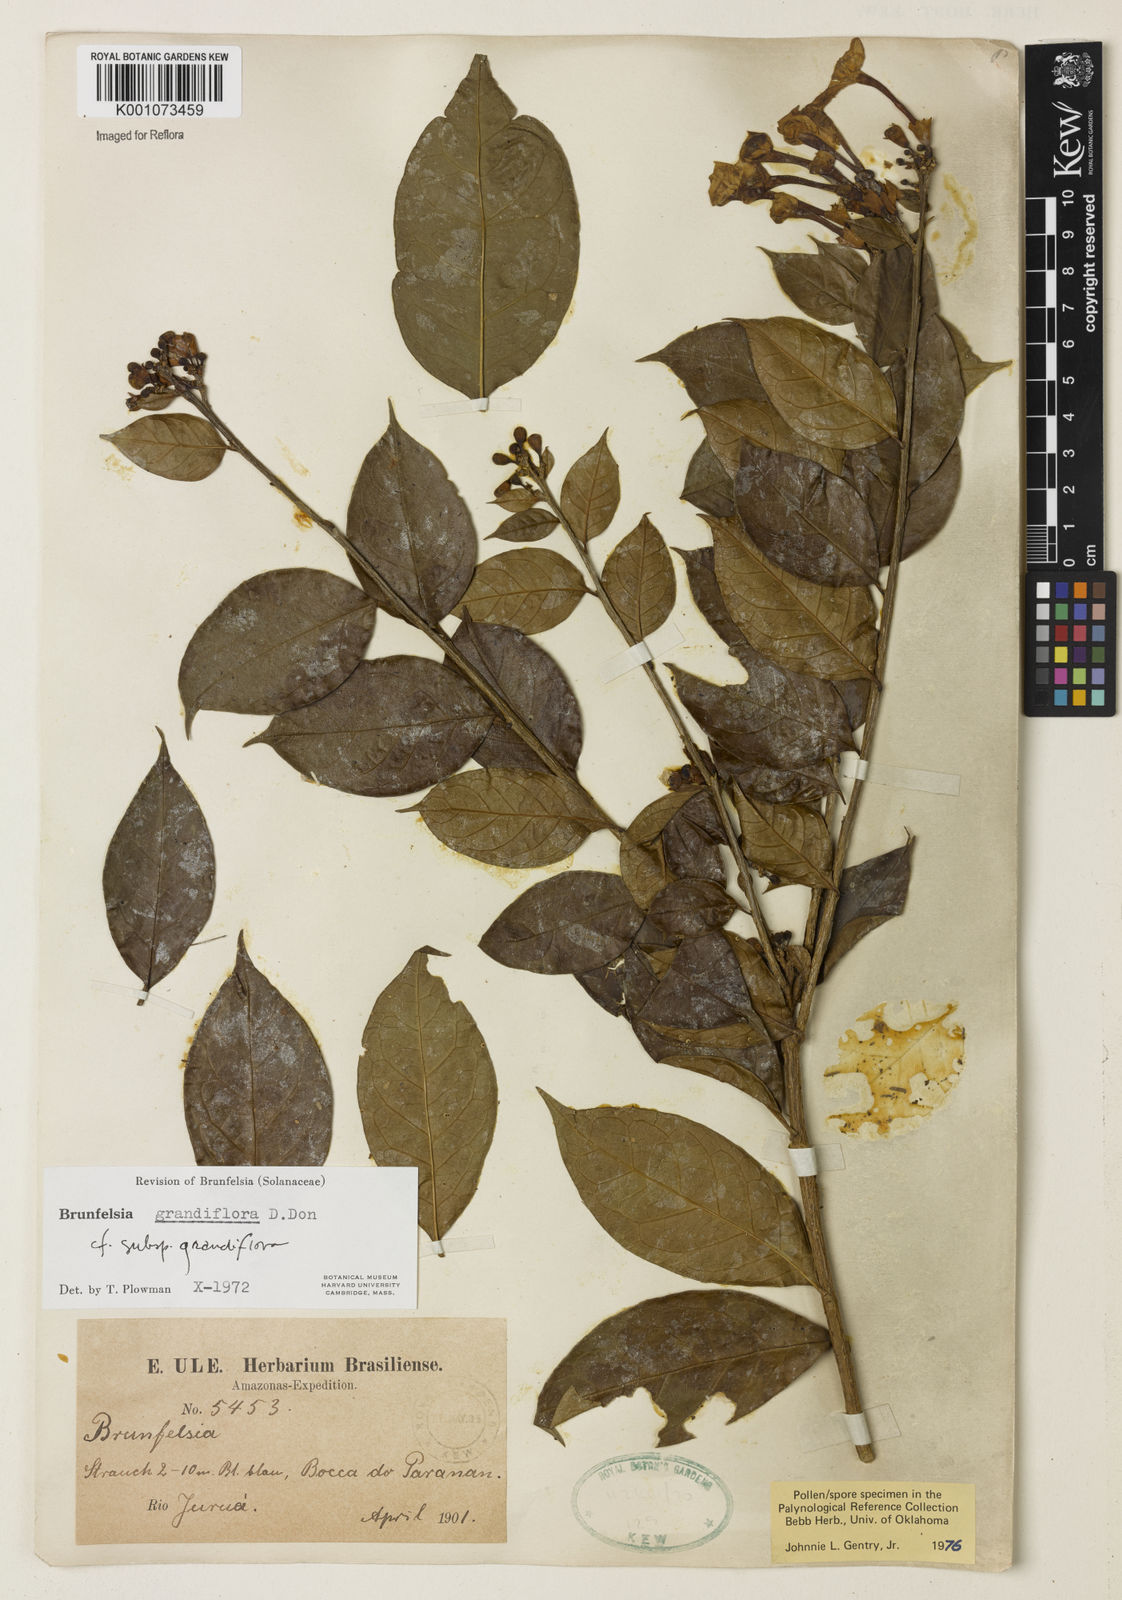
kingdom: Plantae
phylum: Tracheophyta
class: Magnoliopsida
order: Solanales
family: Solanaceae
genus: Brunfelsia
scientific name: Brunfelsia grandiflora
